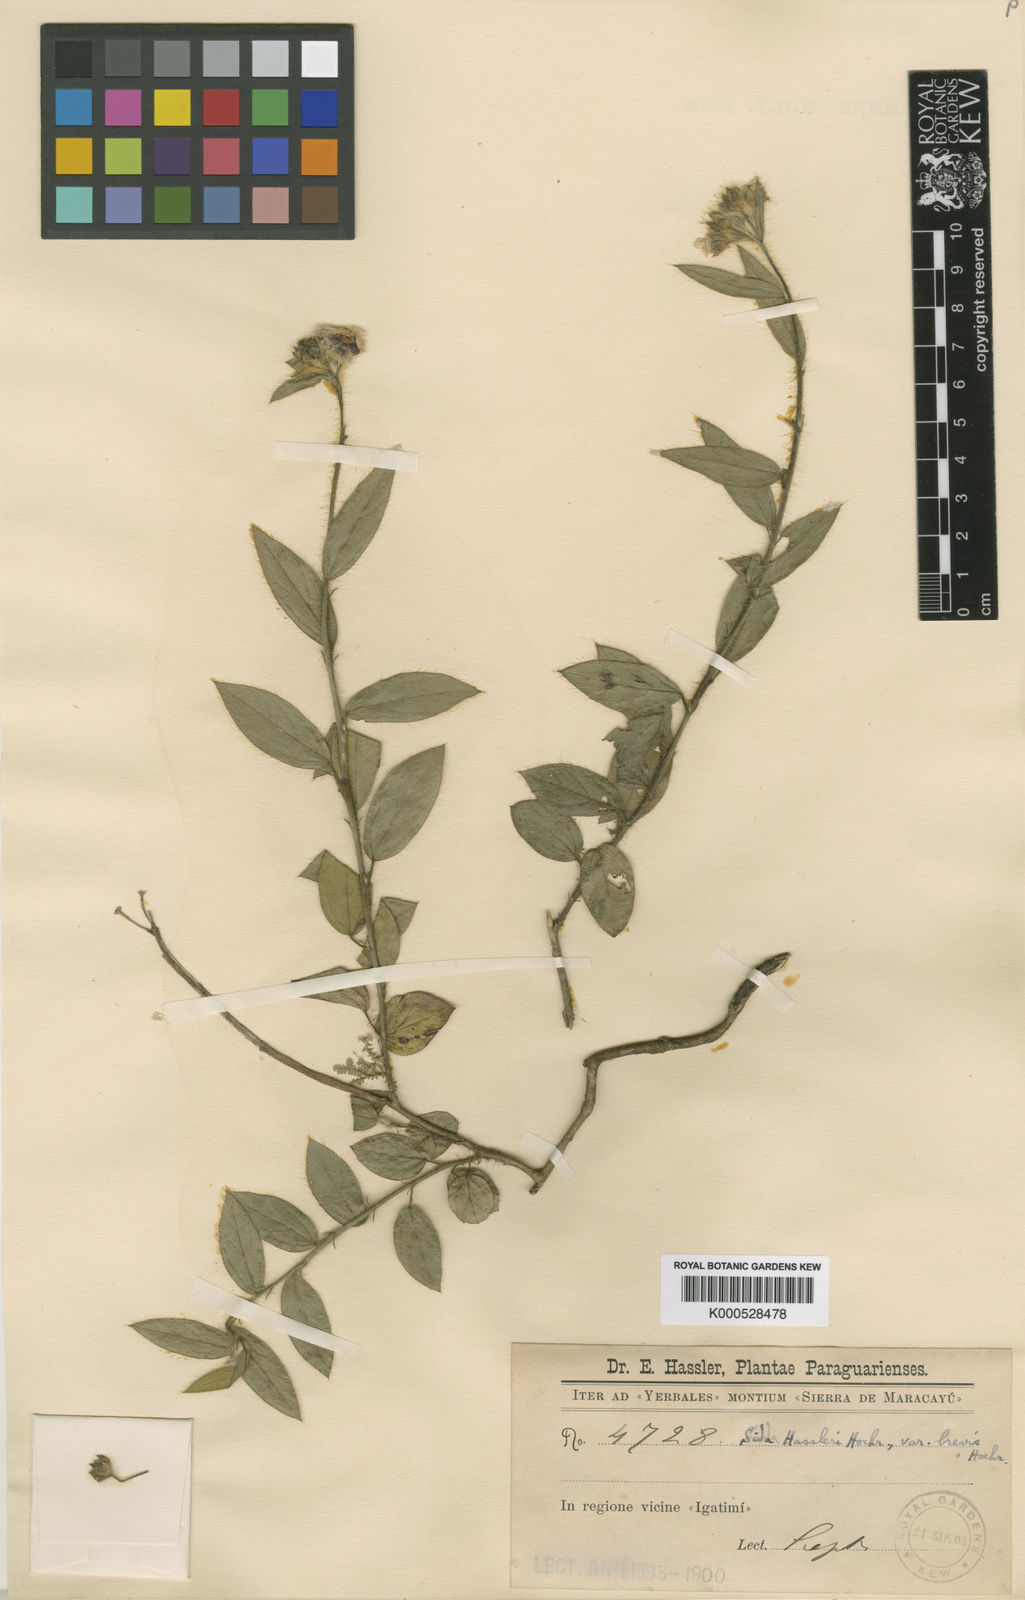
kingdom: Plantae
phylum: Tracheophyta
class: Magnoliopsida
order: Malvales
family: Malvaceae
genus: Sida
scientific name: Sida hassleri
